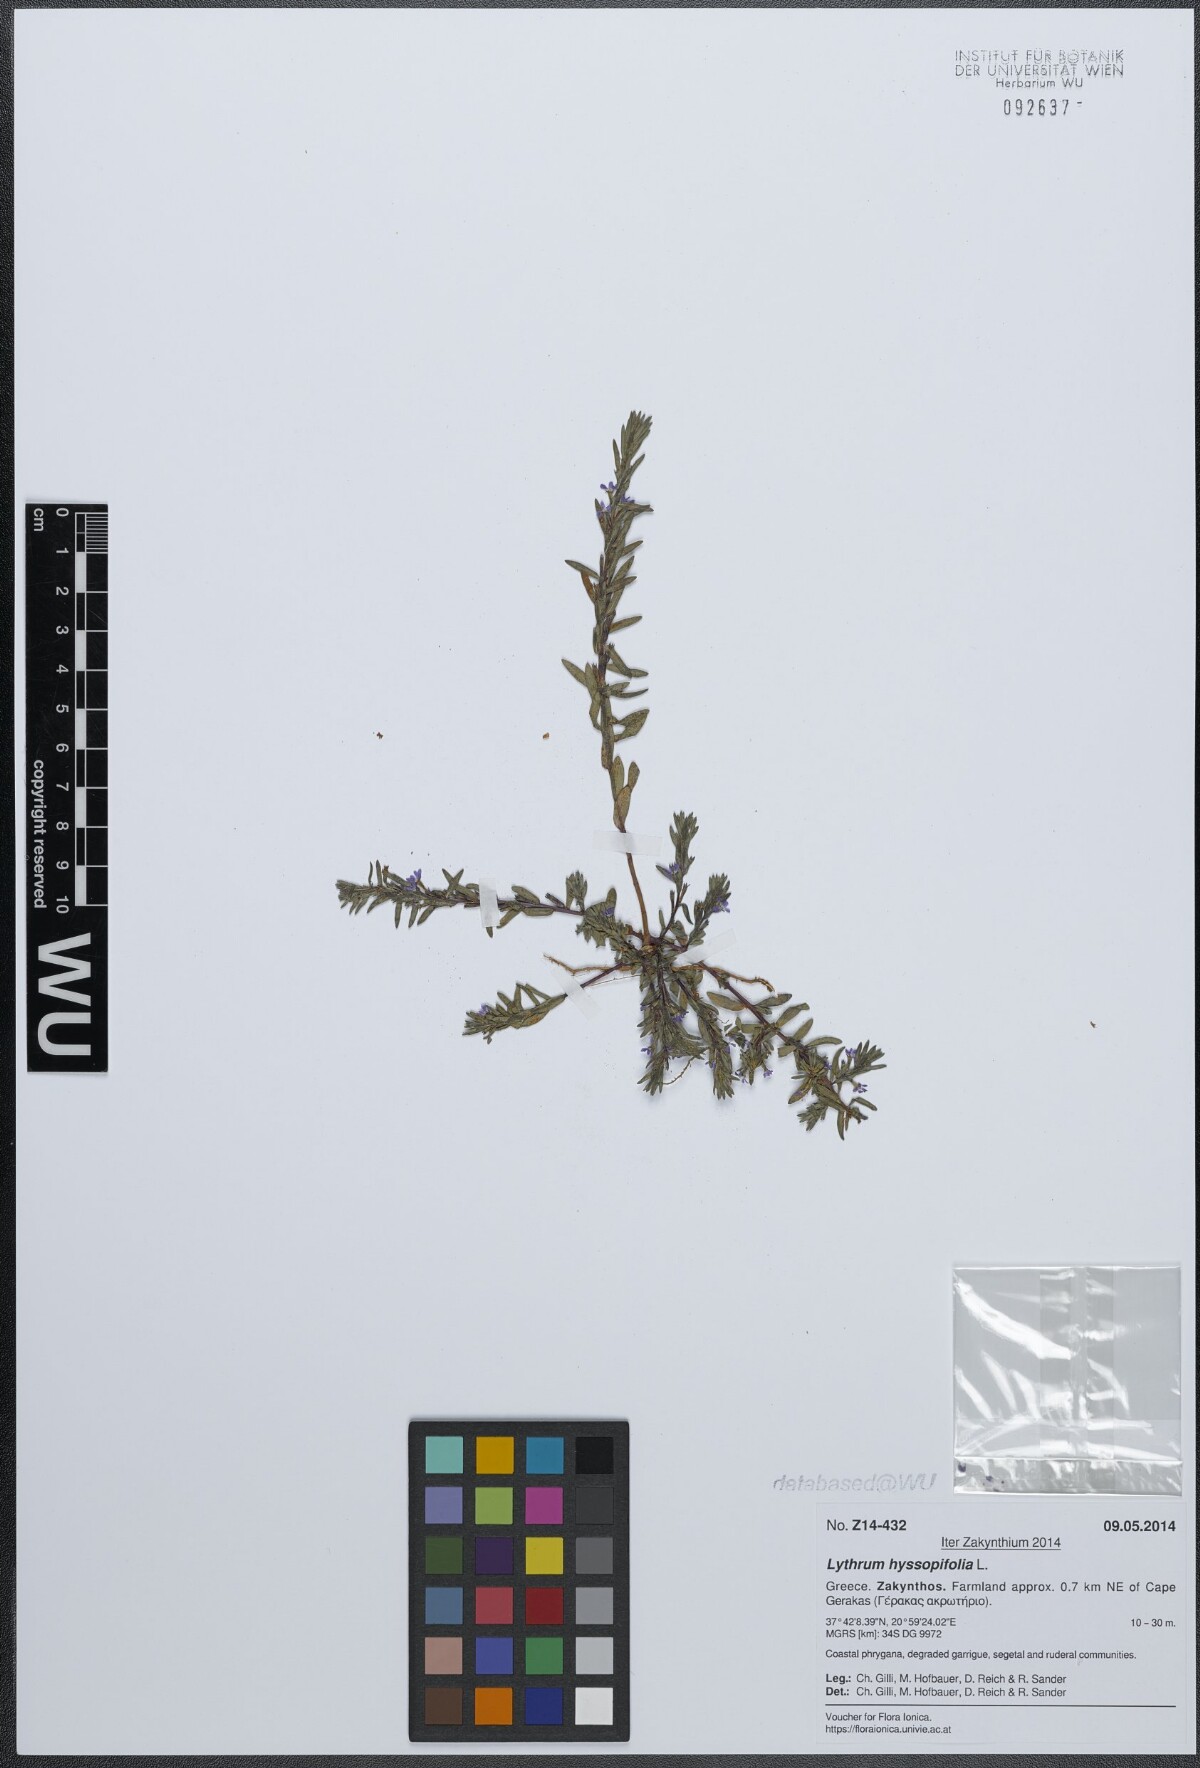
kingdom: Plantae
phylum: Tracheophyta
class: Magnoliopsida
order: Myrtales
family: Lythraceae
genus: Lythrum
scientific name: Lythrum hyssopifolia
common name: Grass-poly
